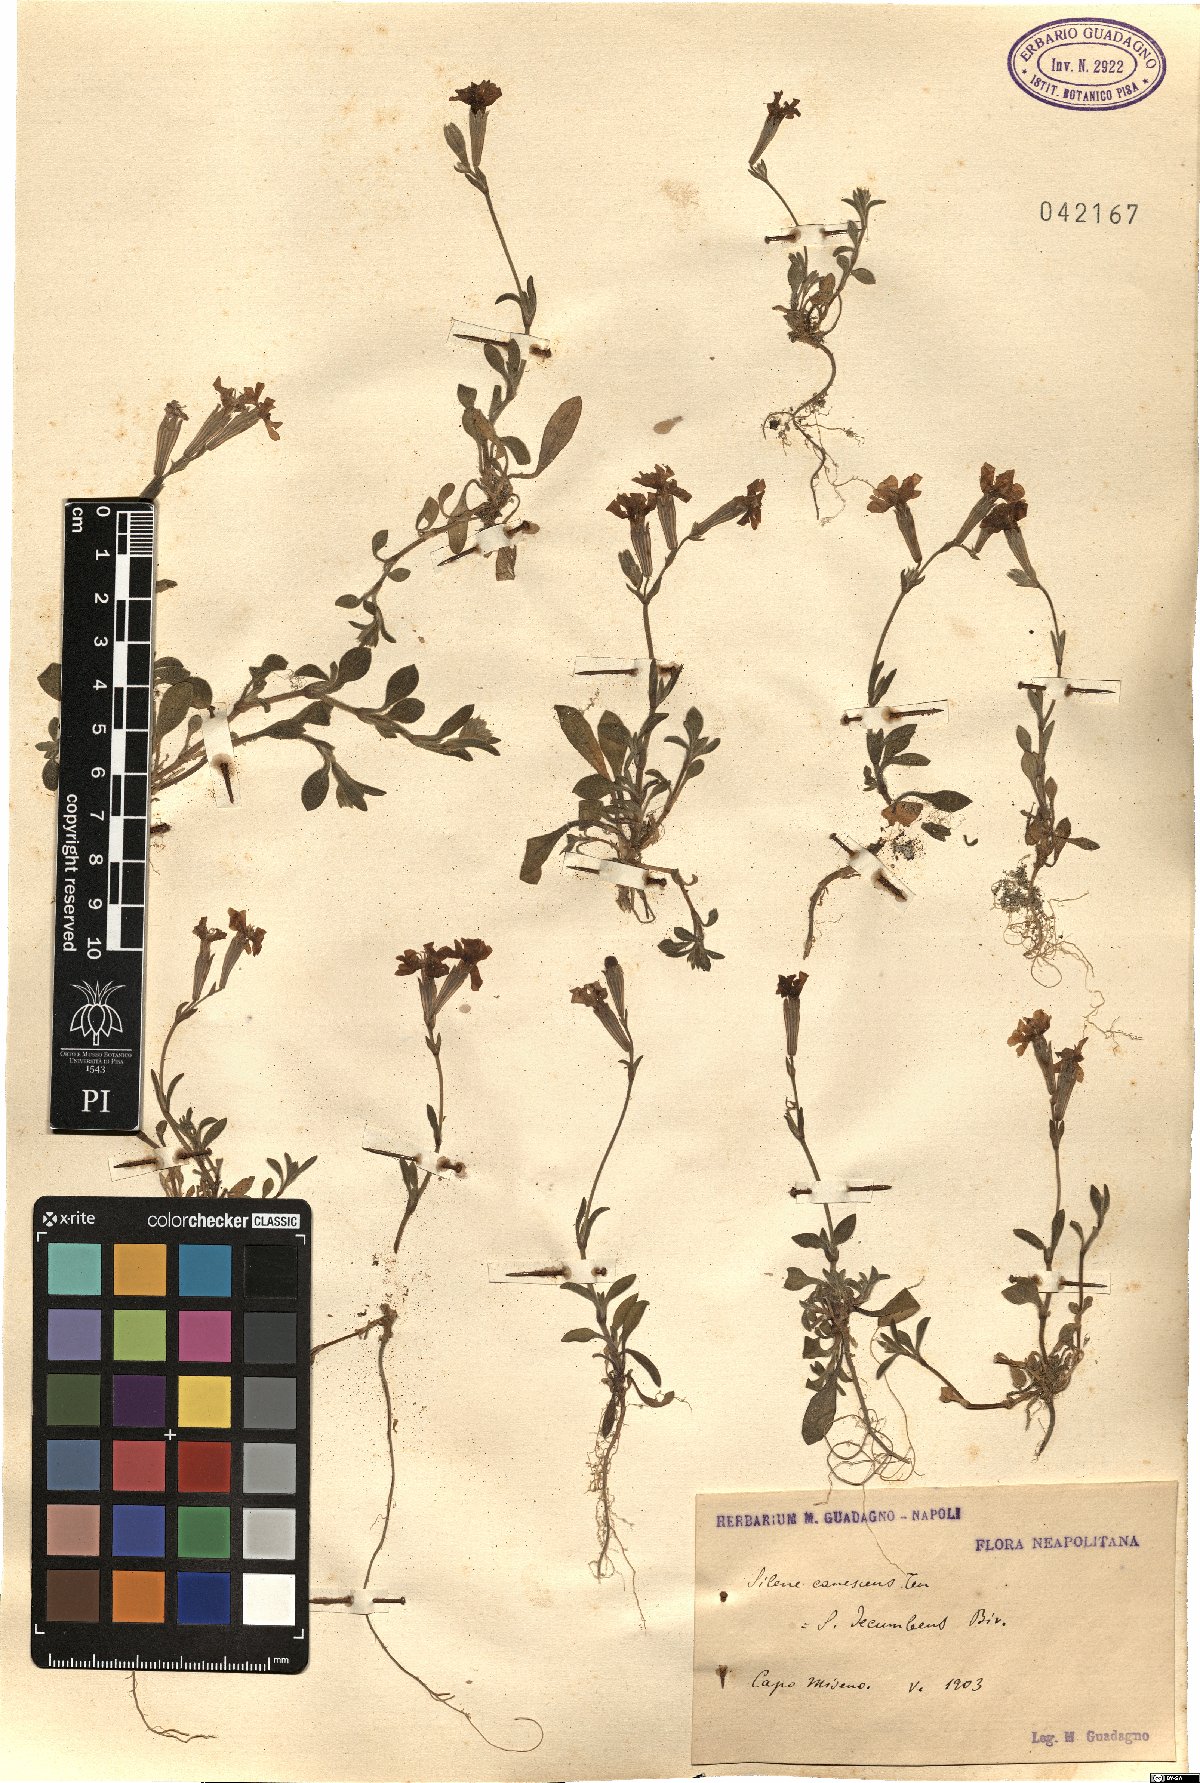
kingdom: Plantae
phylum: Tracheophyta
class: Magnoliopsida
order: Caryophyllales
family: Caryophyllaceae
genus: Silene
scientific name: Silene colorata
